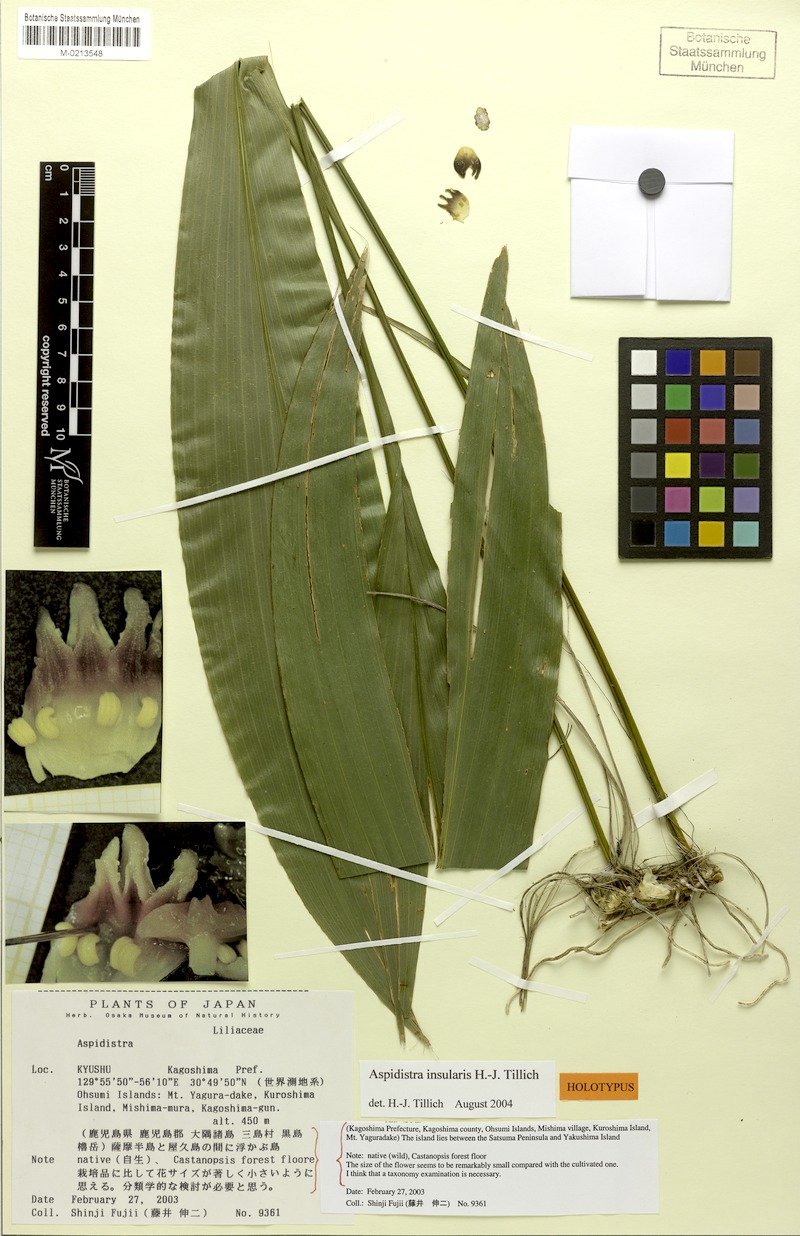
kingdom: Plantae
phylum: Tracheophyta
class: Liliopsida
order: Asparagales
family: Asparagaceae
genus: Aspidistra
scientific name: Aspidistra elatior
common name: Cast-iron-plant
